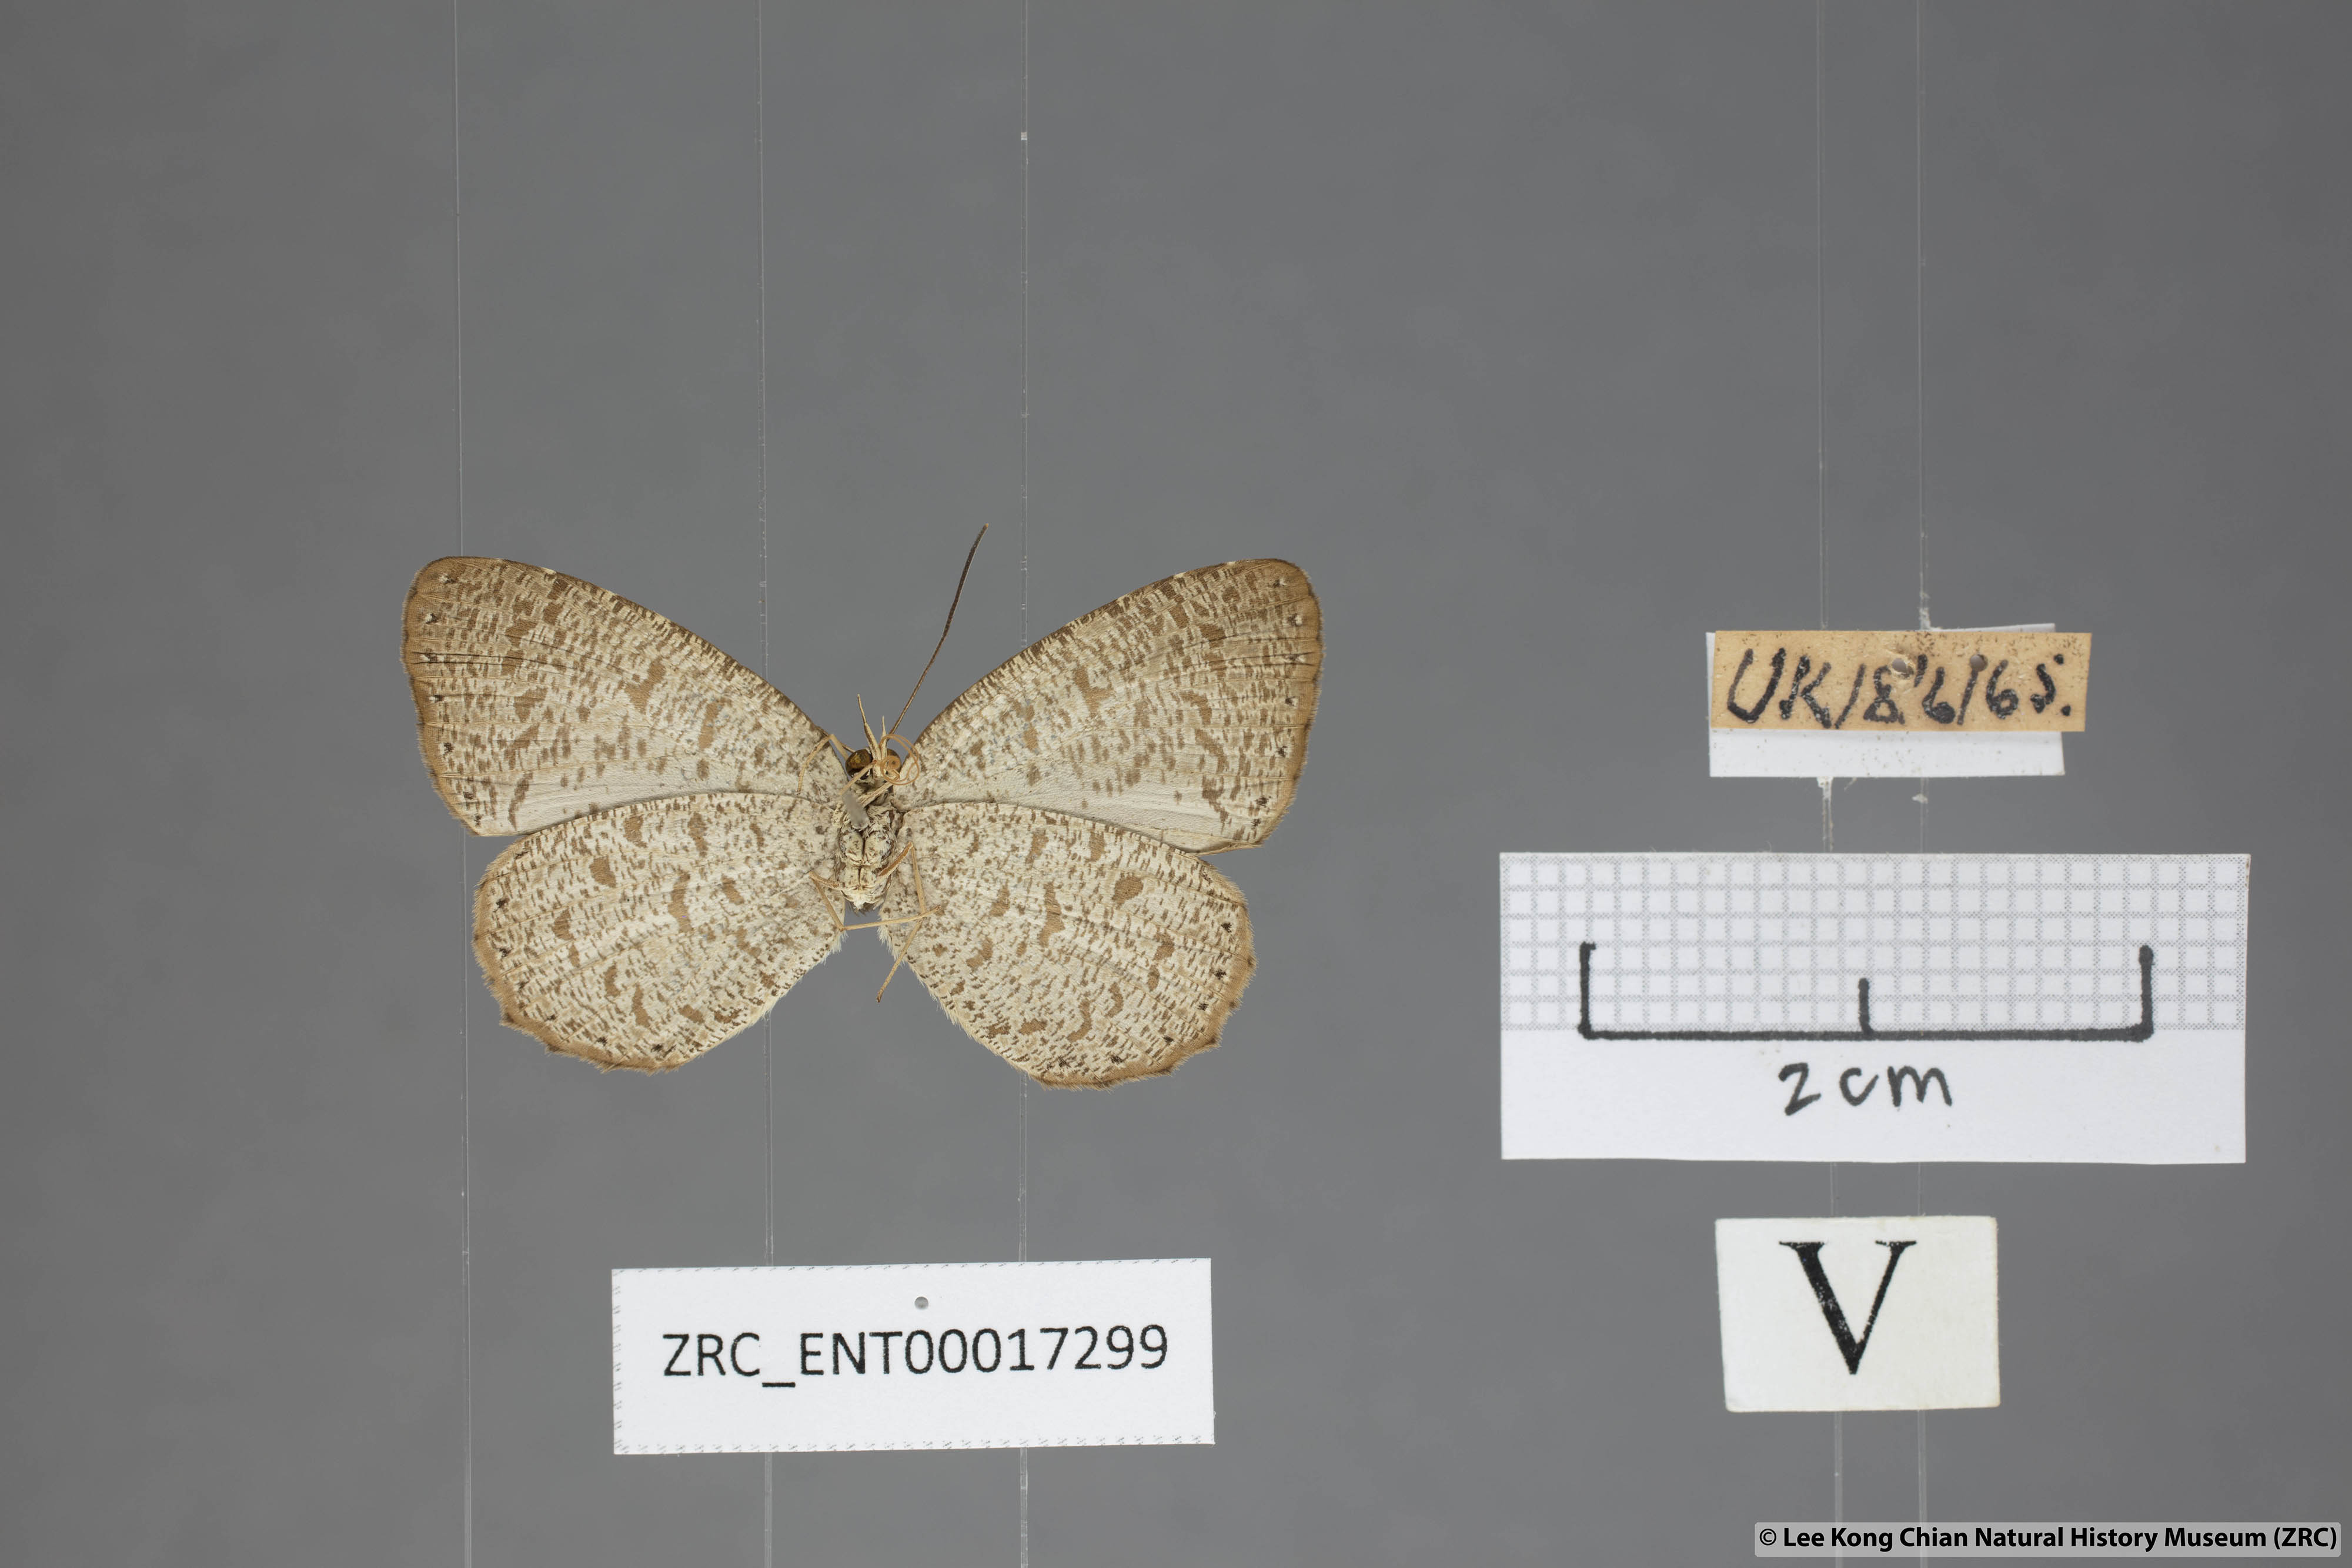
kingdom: Animalia
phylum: Arthropoda
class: Insecta
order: Lepidoptera
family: Lycaenidae
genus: Allotinus
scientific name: Allotinus strigatus
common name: Small malayan darkie
